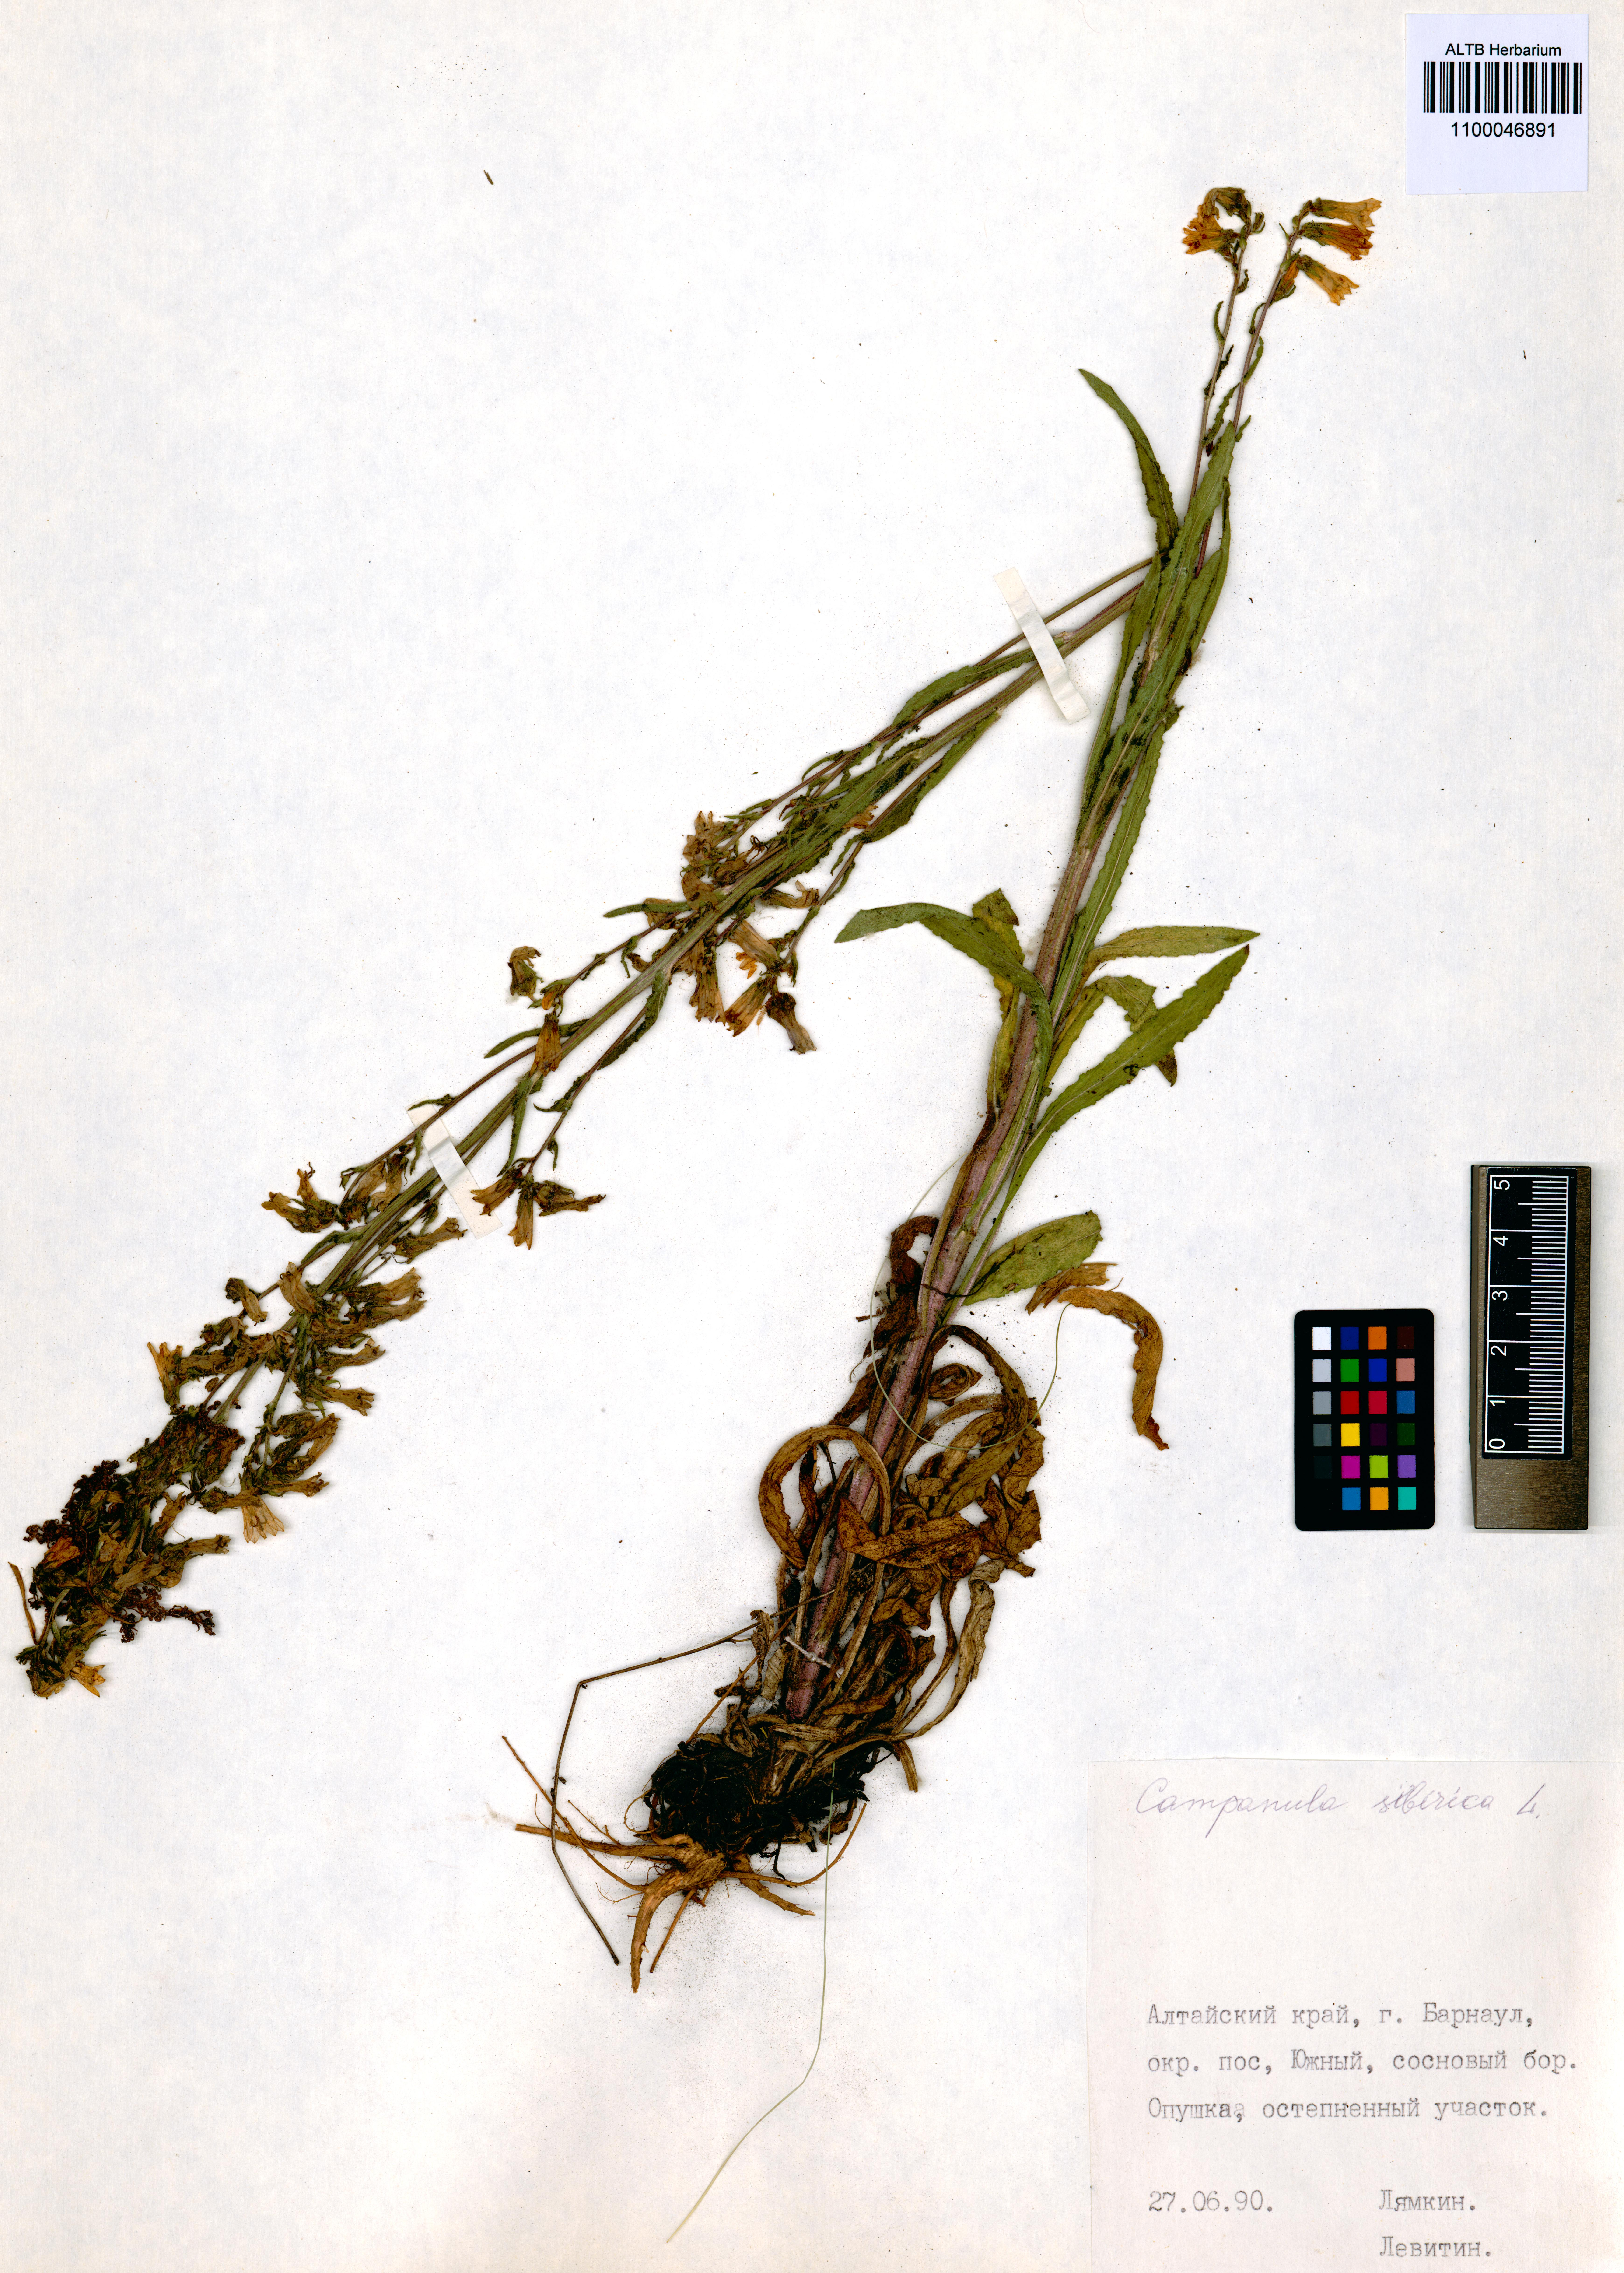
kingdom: Plantae
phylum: Tracheophyta
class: Magnoliopsida
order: Asterales
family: Campanulaceae
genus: Campanula
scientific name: Campanula sibirica
